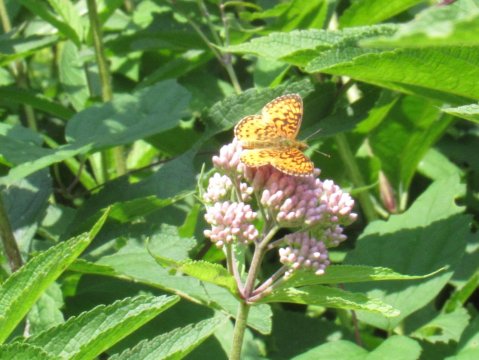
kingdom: Animalia
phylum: Arthropoda
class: Insecta
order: Lepidoptera
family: Nymphalidae
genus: Boloria
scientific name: Boloria selene
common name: Silver-bordered Fritillary
